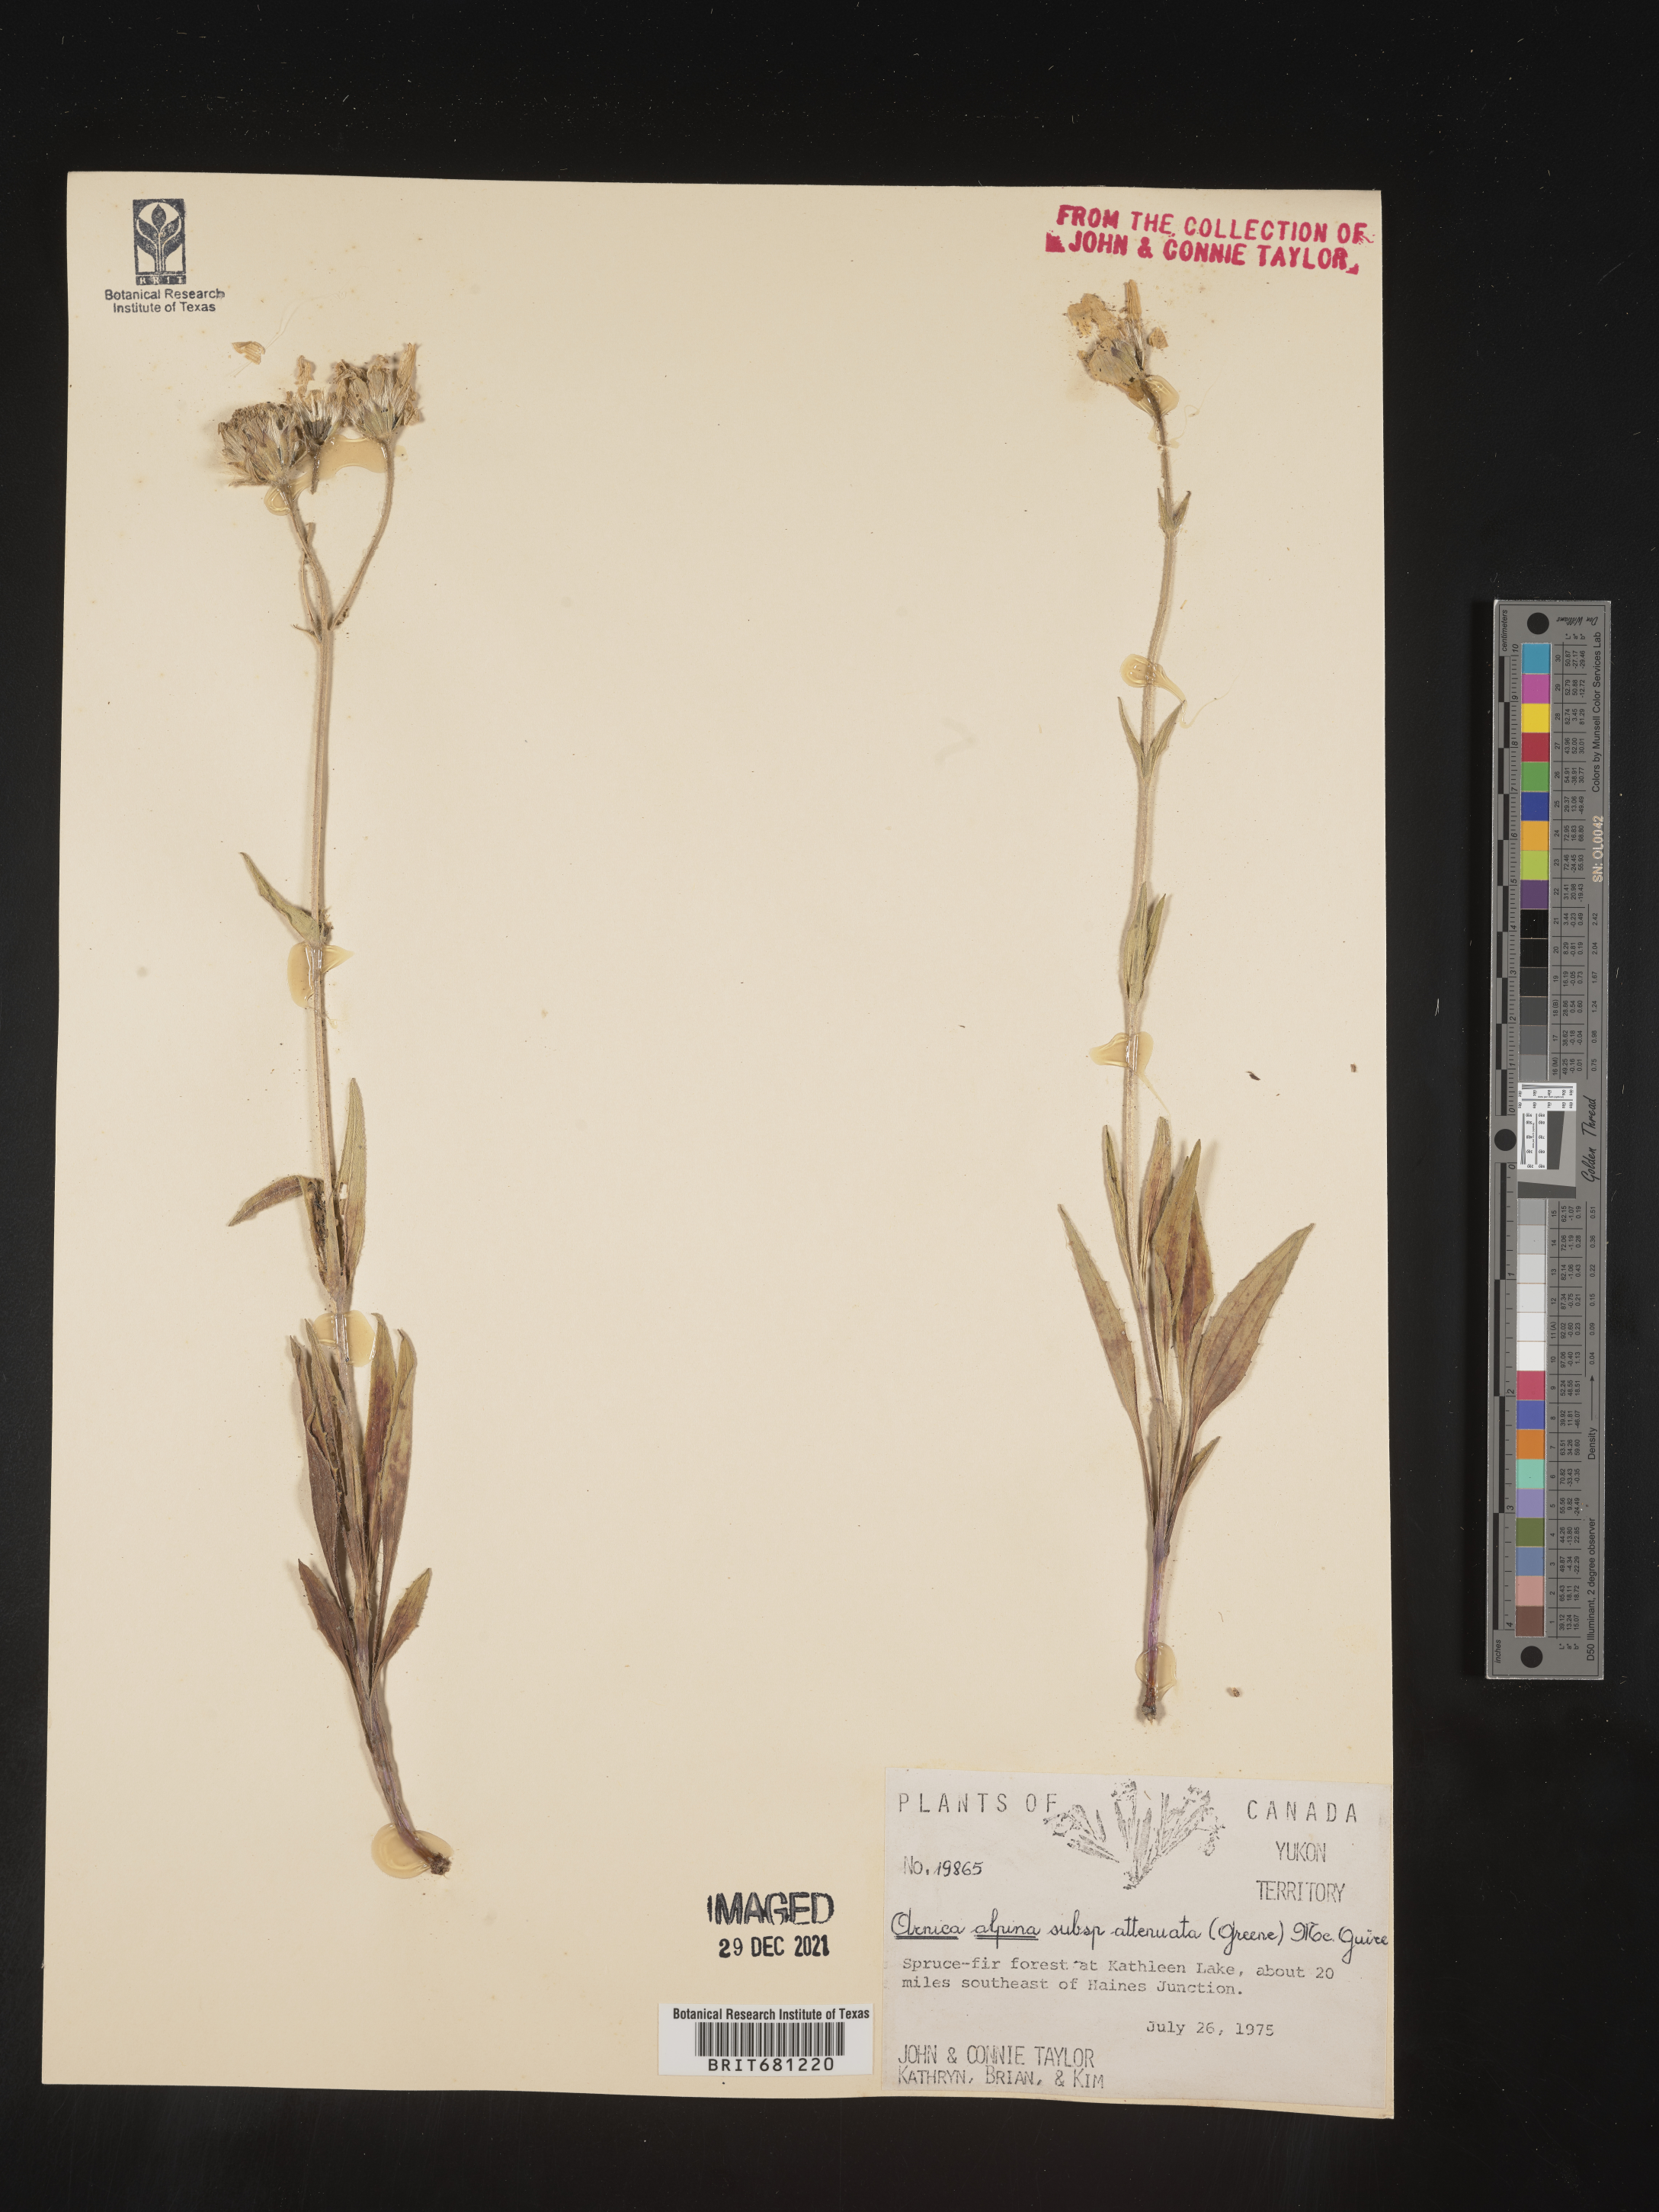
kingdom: Plantae
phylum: Tracheophyta
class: Magnoliopsida
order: Asterales
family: Asteraceae
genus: Arnica
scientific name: Arnica angustifolia
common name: Arctic arnica
